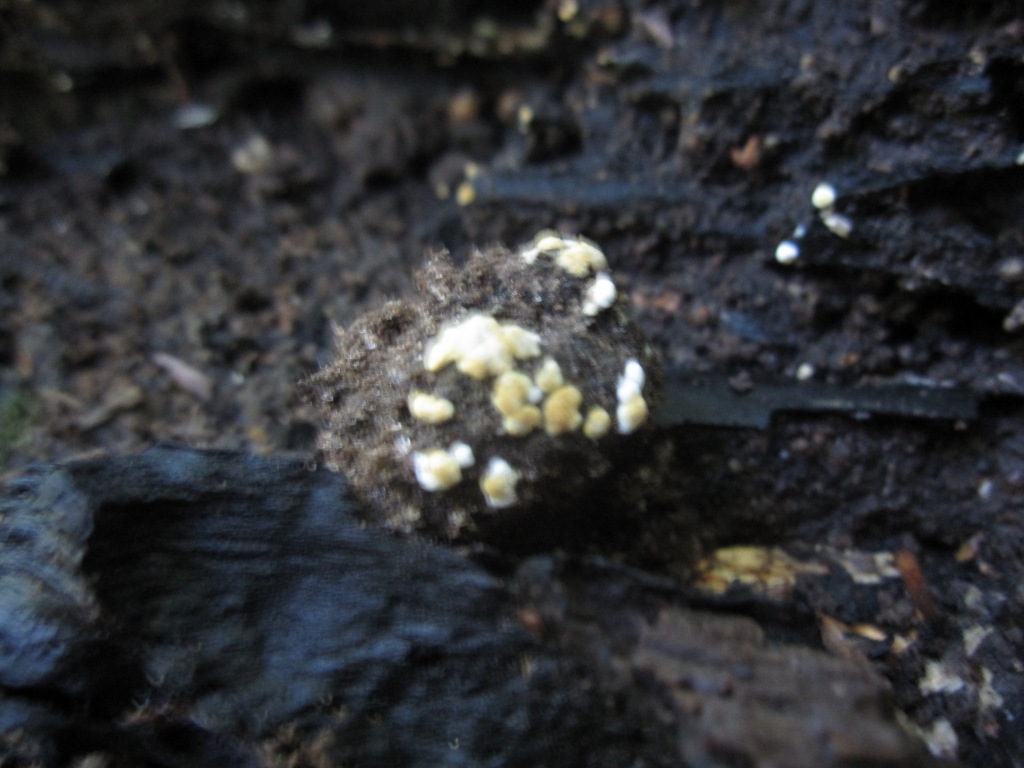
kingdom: Fungi
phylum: Basidiomycota
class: Agaricomycetes
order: Cantharellales
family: Botryobasidiaceae
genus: Botryobasidium
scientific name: Botryobasidium aureum
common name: gylden spindhinde
